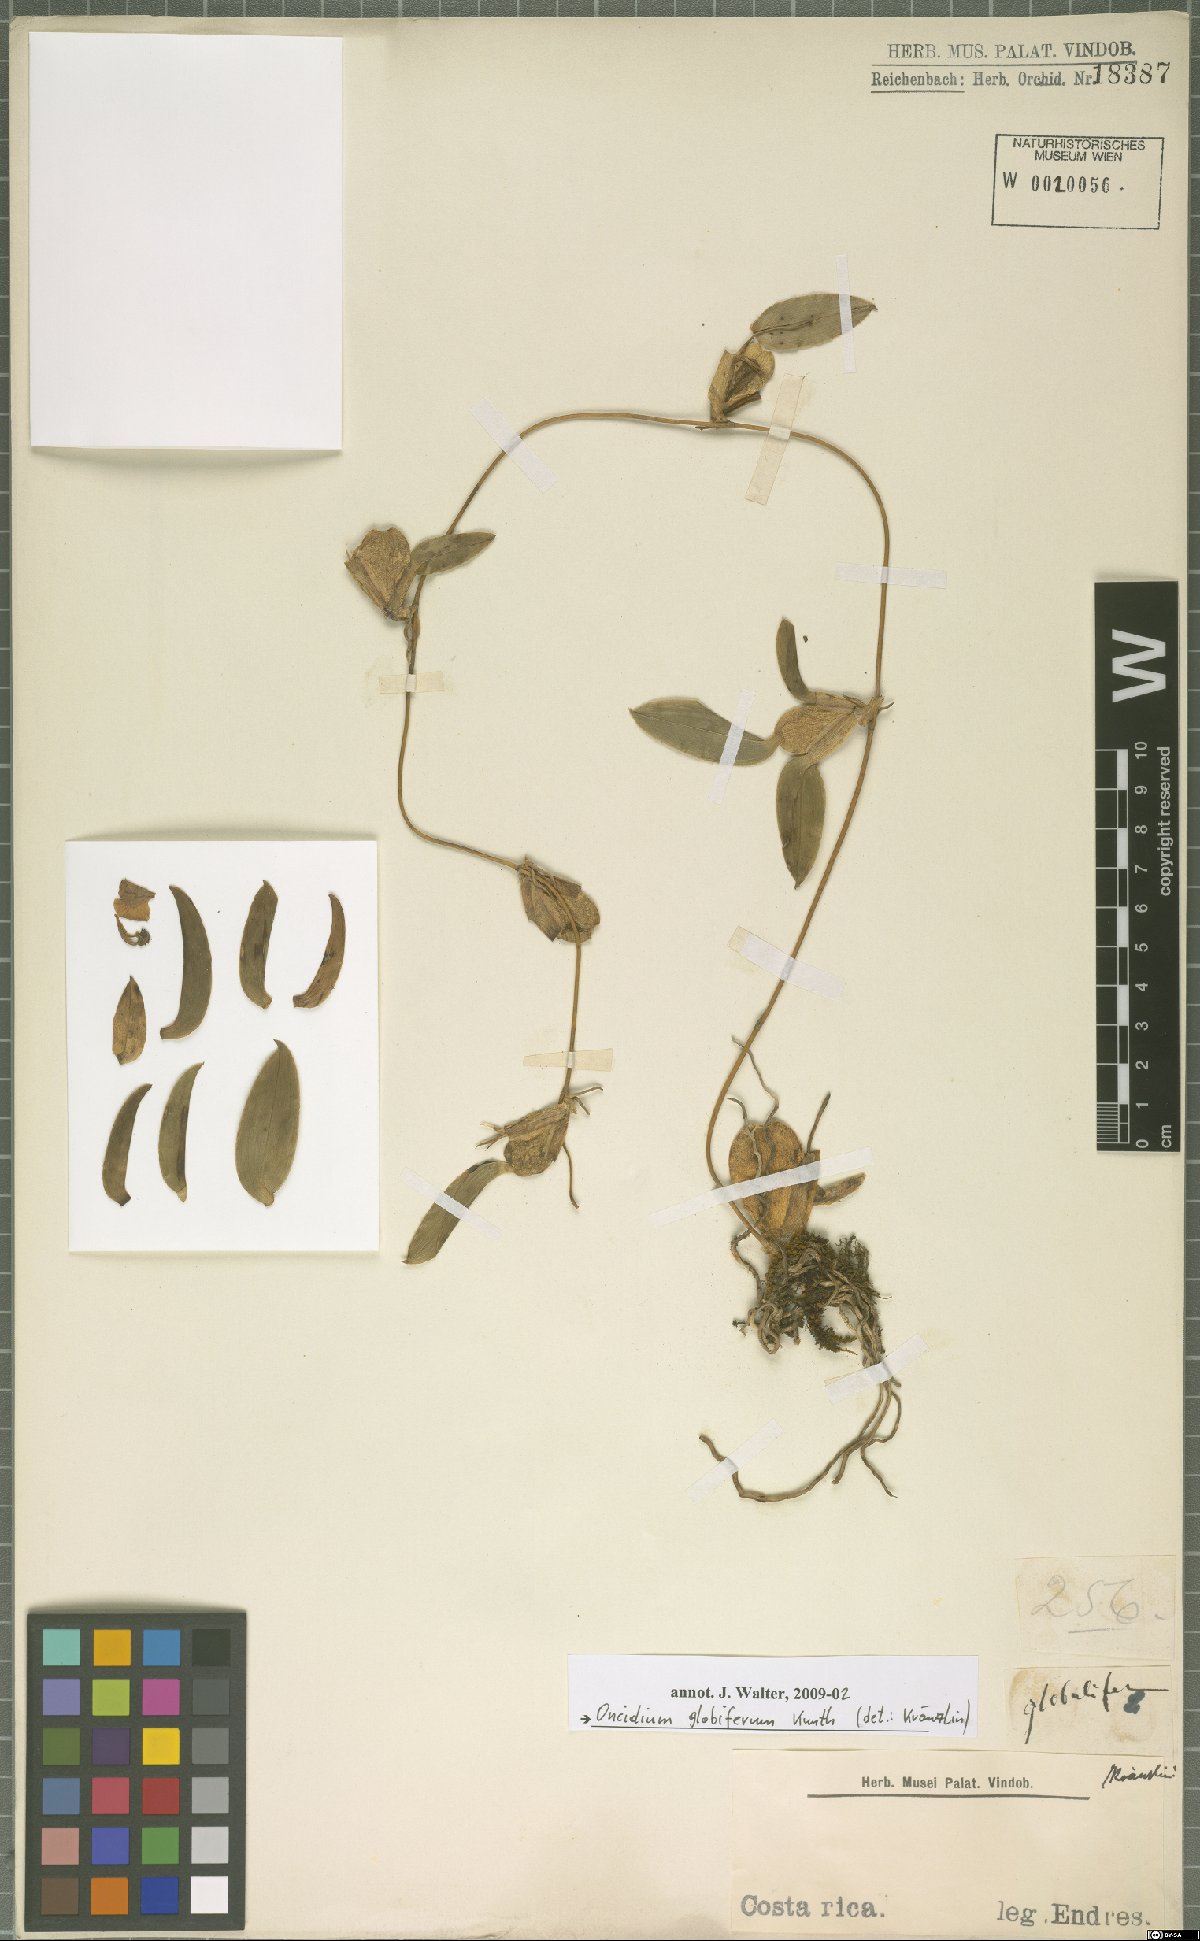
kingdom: Plantae
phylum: Tracheophyta
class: Liliopsida
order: Asparagales
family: Orchidaceae
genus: Otoglossum
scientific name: Otoglossum globuliferum
